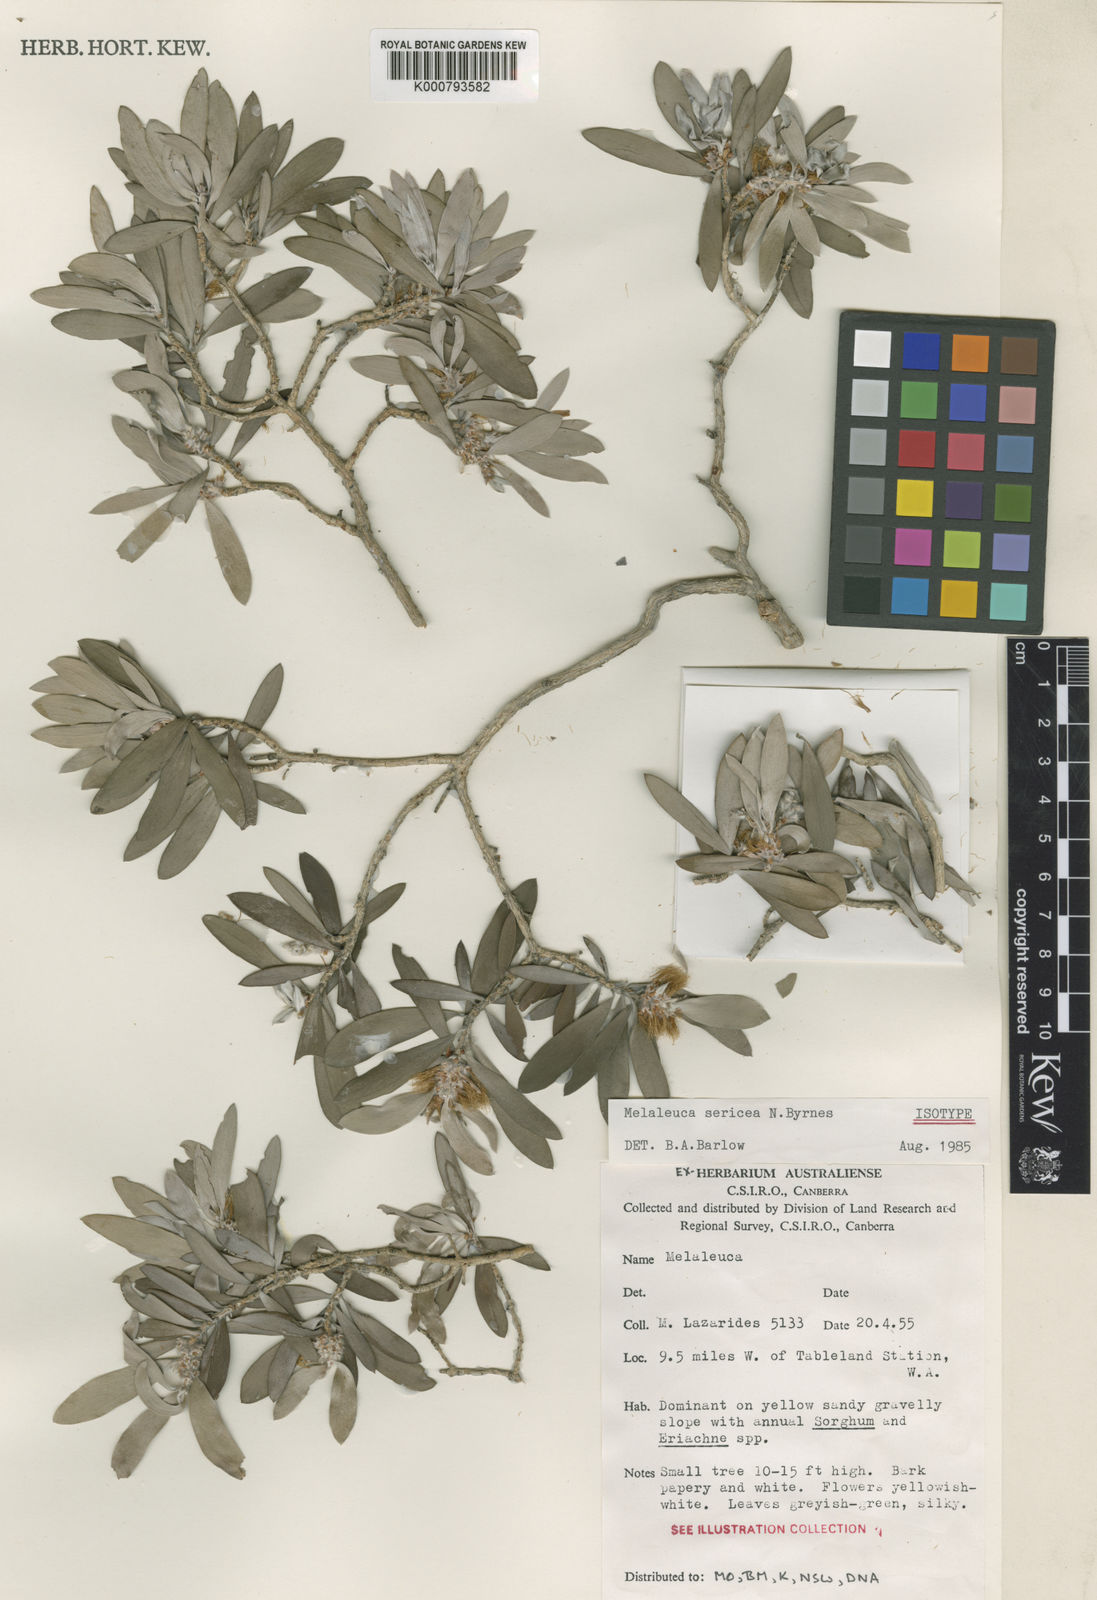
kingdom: Plantae
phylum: Tracheophyta
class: Magnoliopsida
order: Myrtales
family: Myrtaceae
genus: Melaleuca
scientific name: Melaleuca sericea
